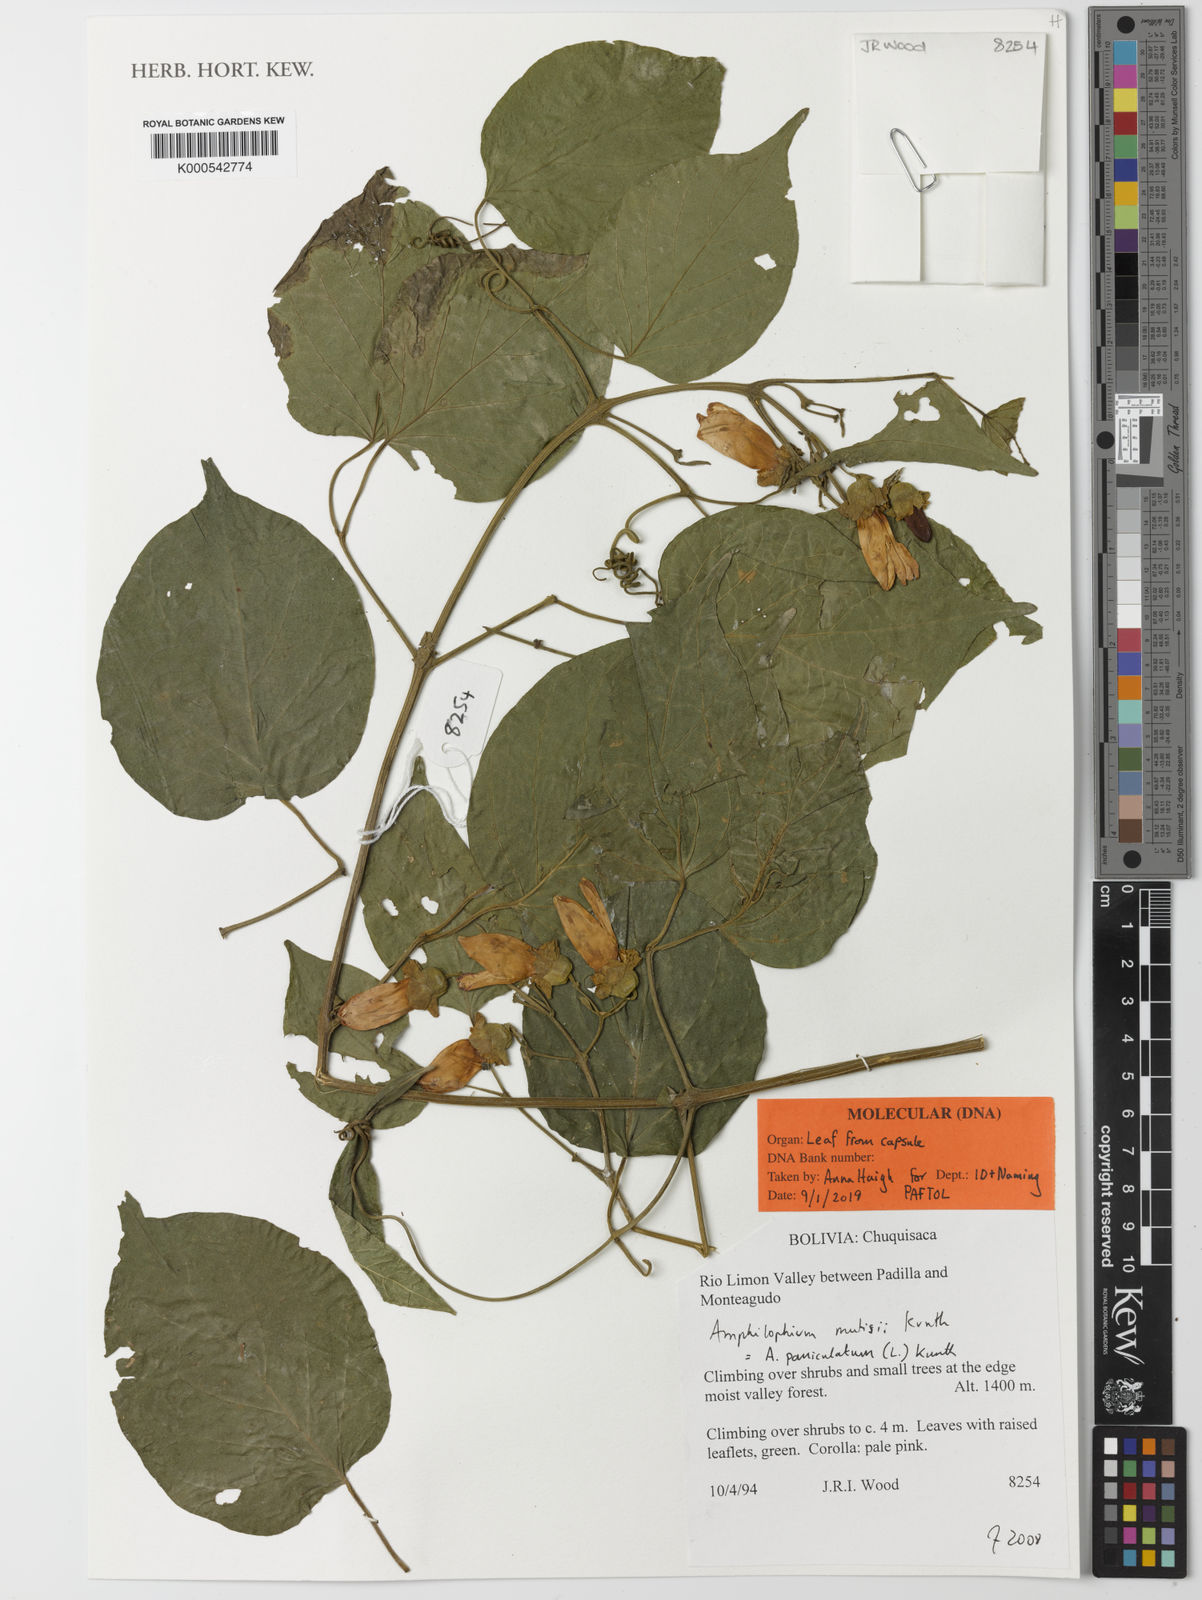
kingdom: Plantae
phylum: Tracheophyta
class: Magnoliopsida
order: Lamiales
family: Bignoniaceae
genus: Amphilophium
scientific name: Amphilophium paniculatum
